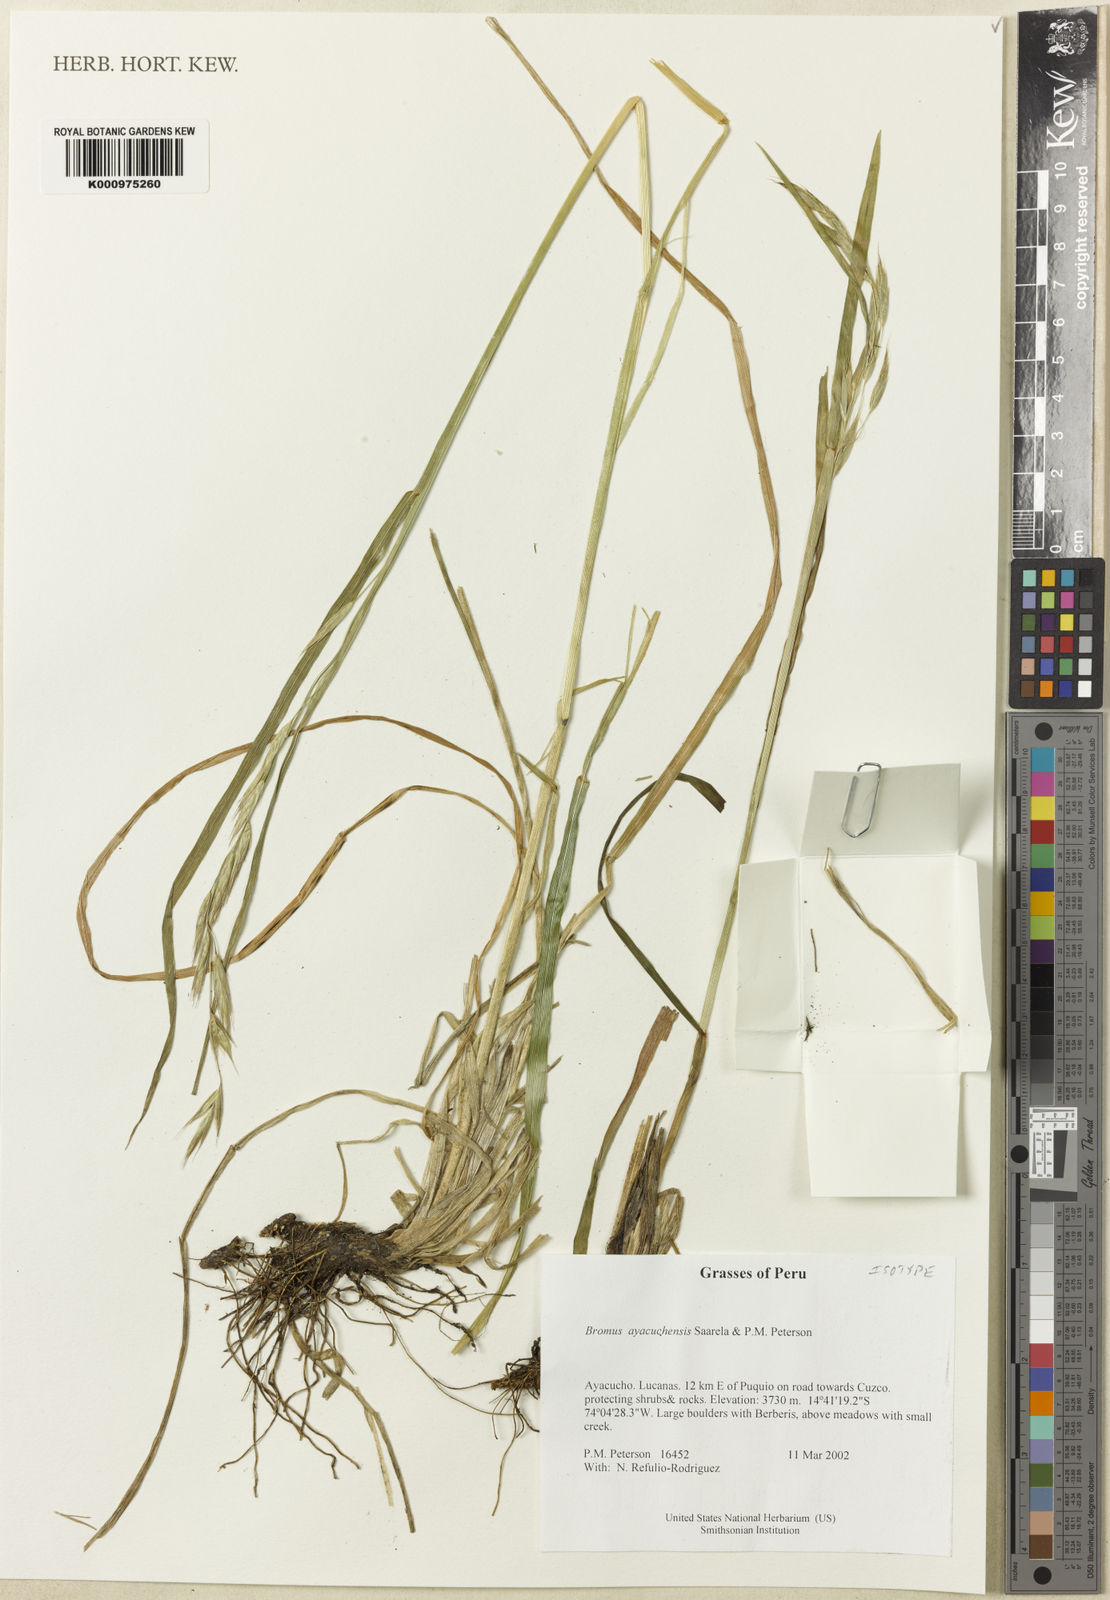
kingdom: Plantae
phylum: Tracheophyta
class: Liliopsida
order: Poales
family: Poaceae
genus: Bromus
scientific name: Bromus ayacuchensis
